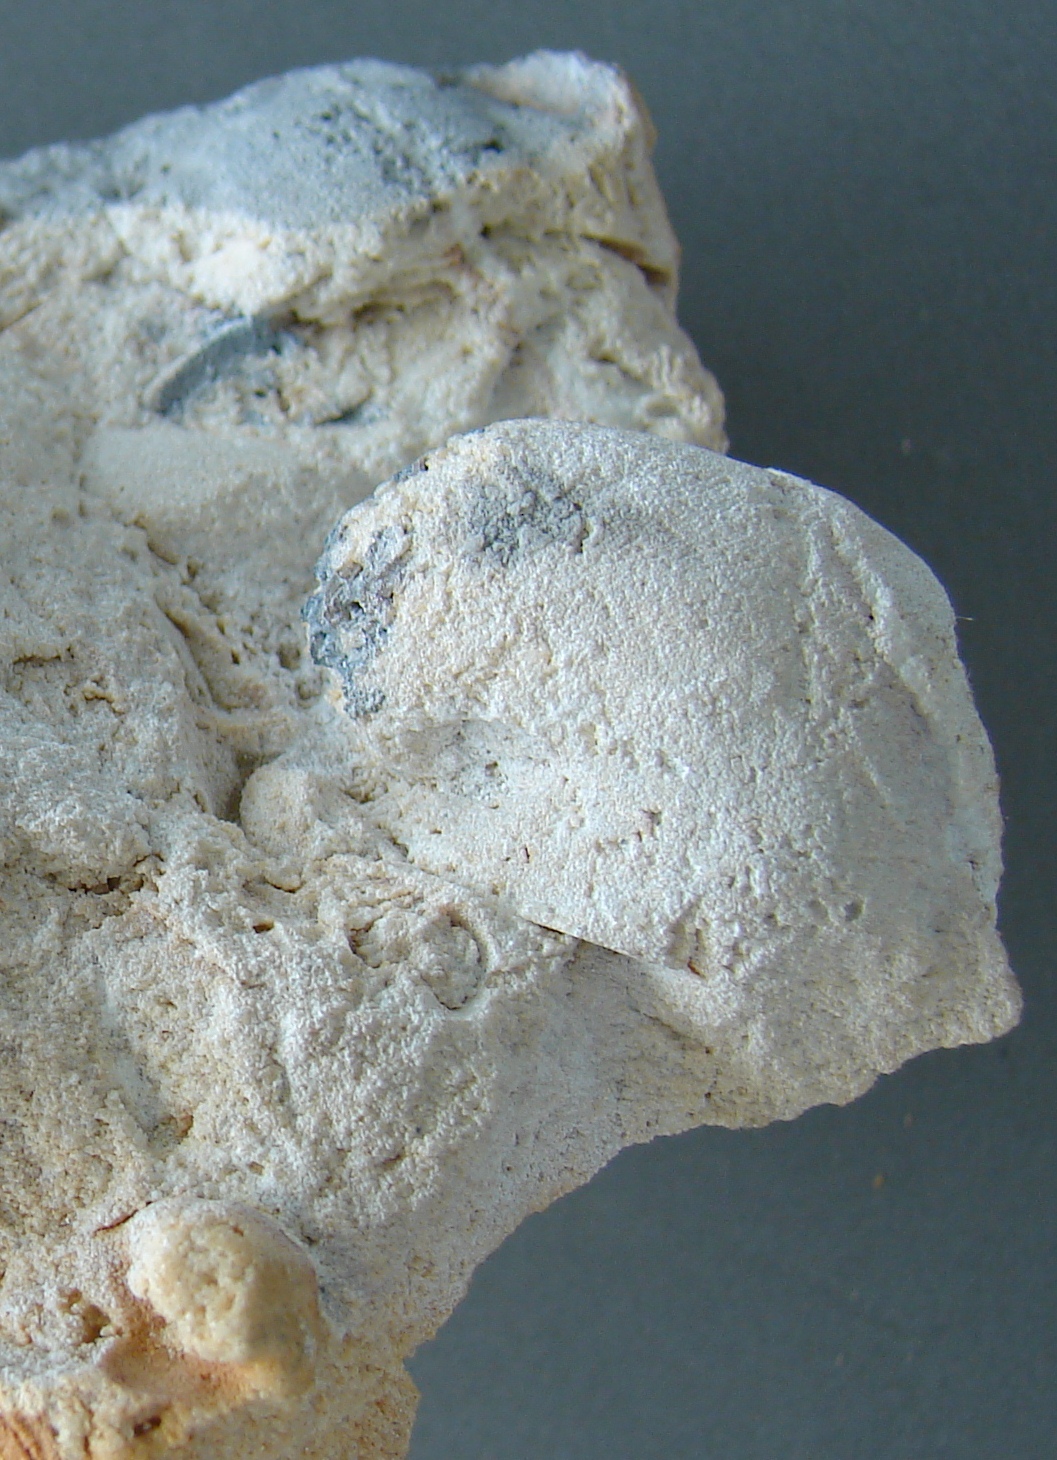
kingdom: Animalia
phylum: Mollusca
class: Gastropoda
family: Bucaniidae
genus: Ptomatis
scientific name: Ptomatis
